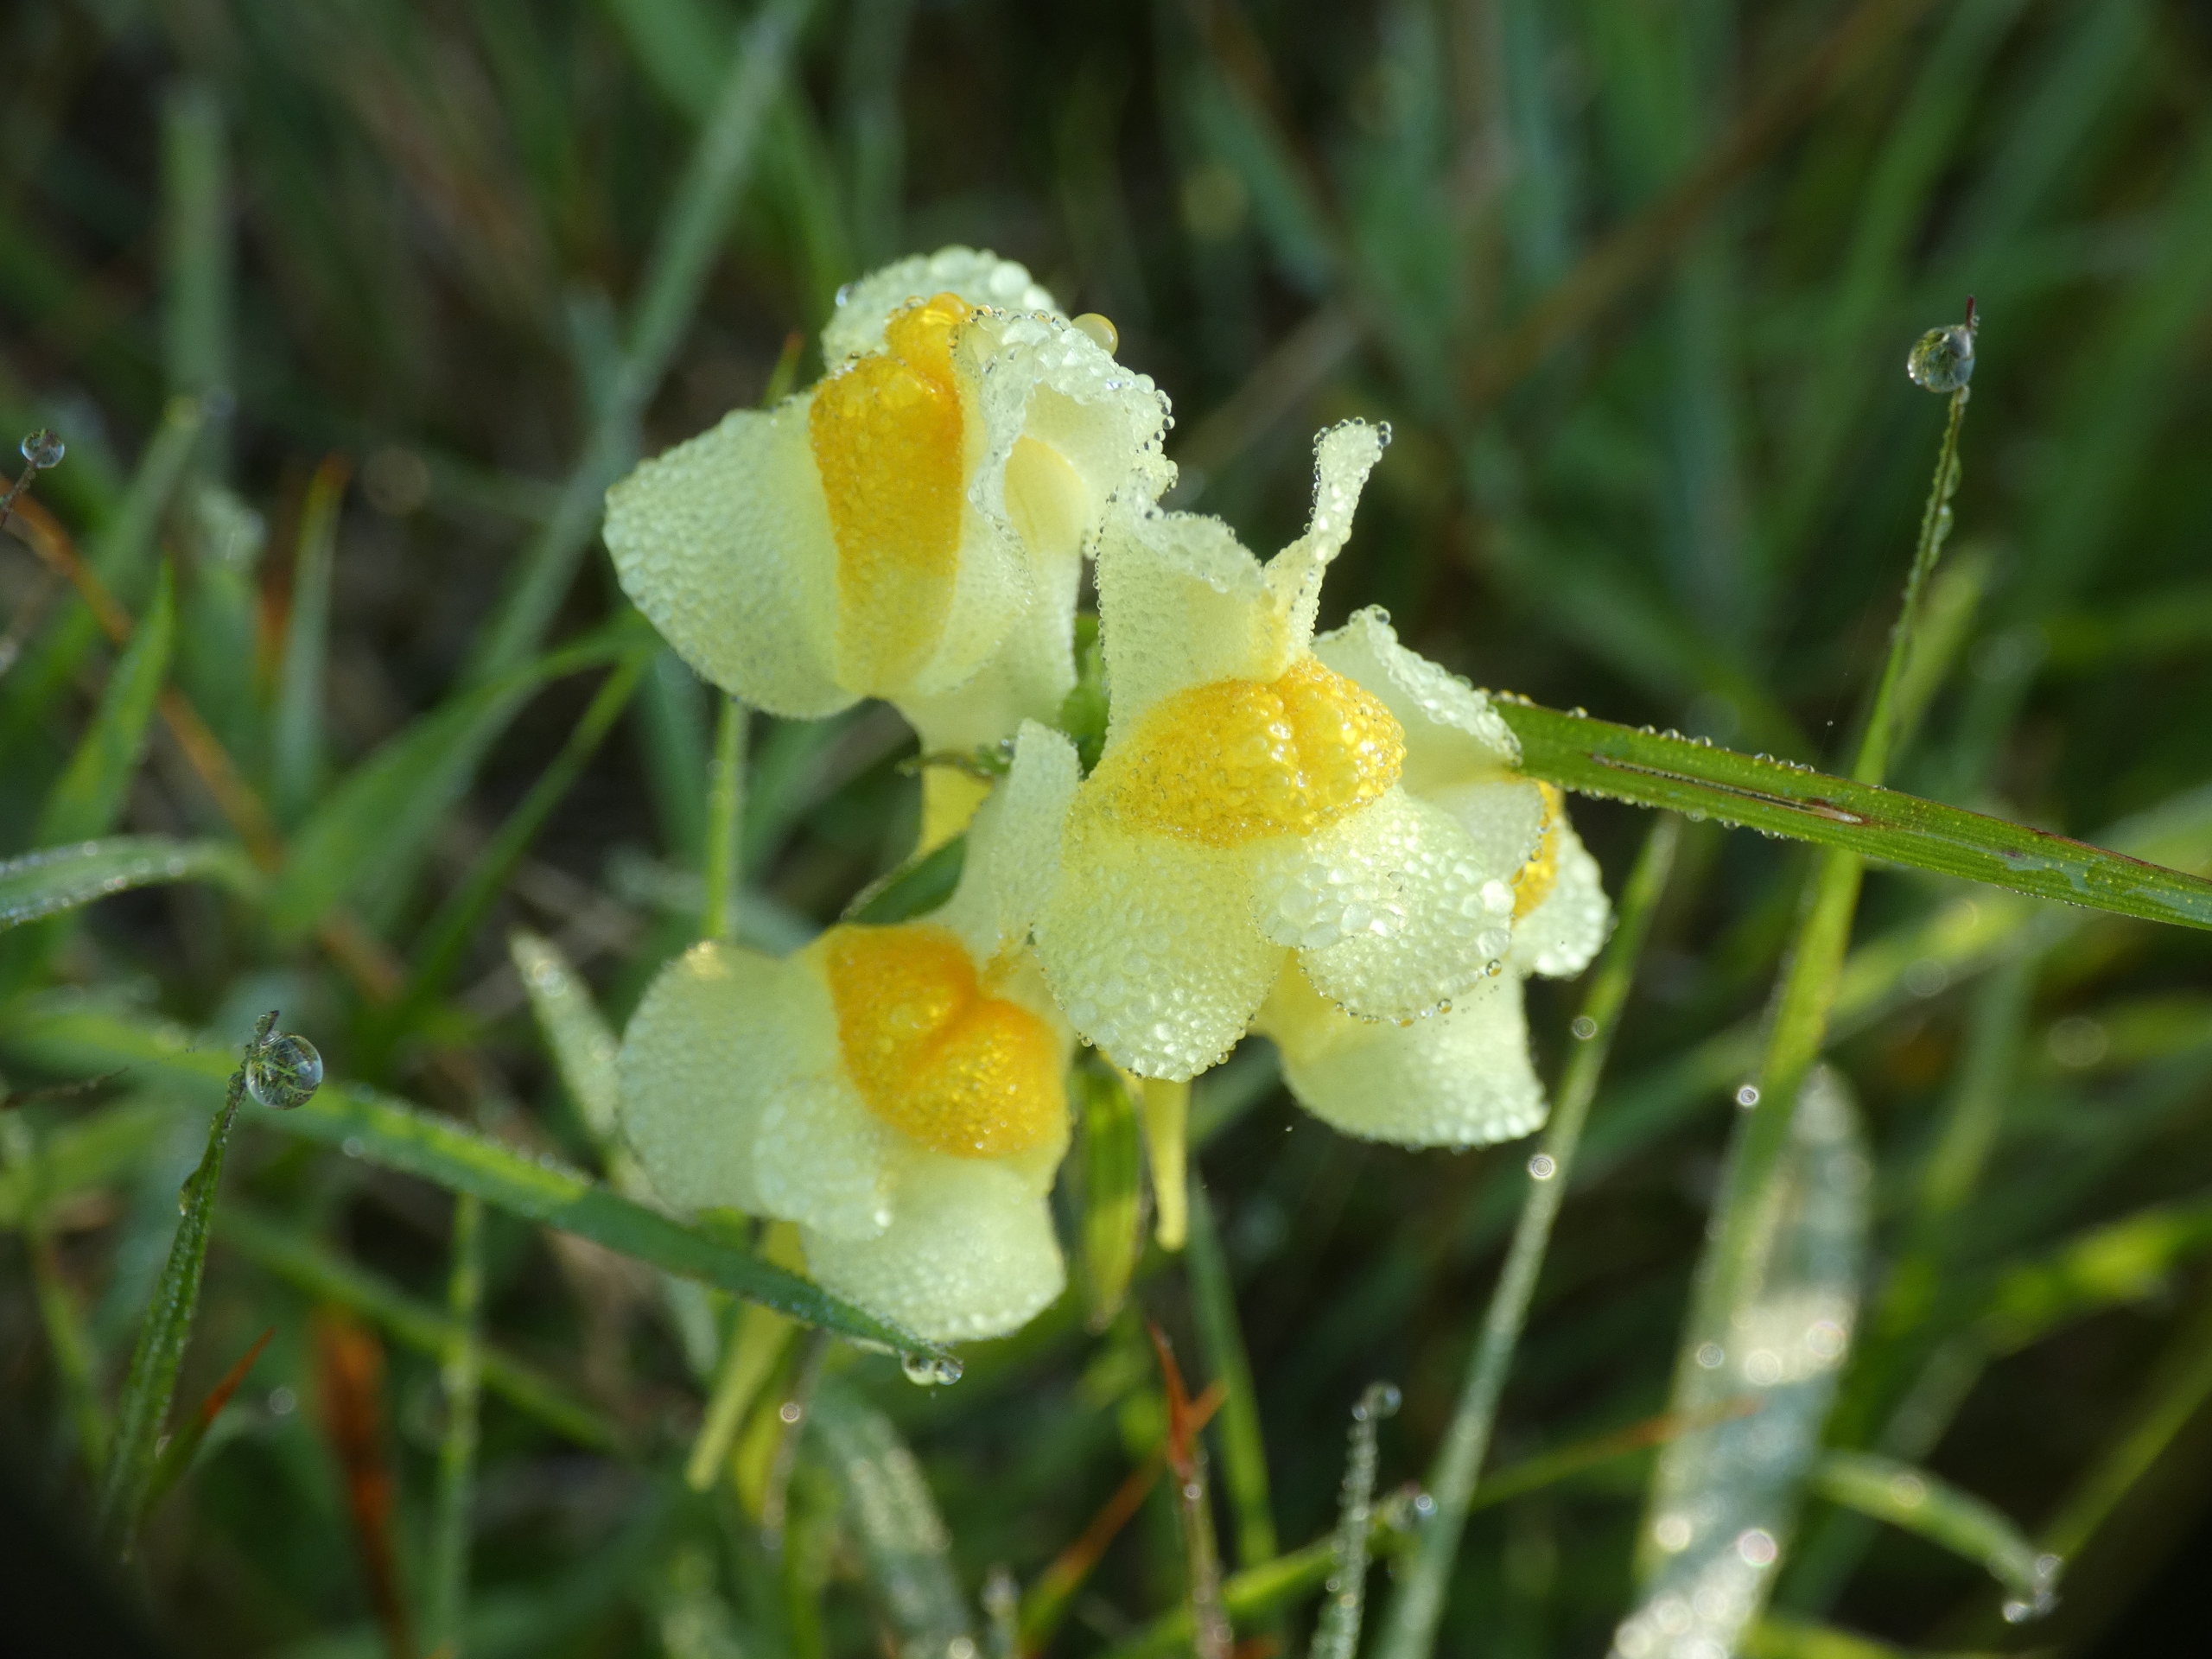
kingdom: Plantae
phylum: Tracheophyta
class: Magnoliopsida
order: Lamiales
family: Plantaginaceae
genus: Linaria
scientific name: Linaria vulgaris
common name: Almindelig torskemund
